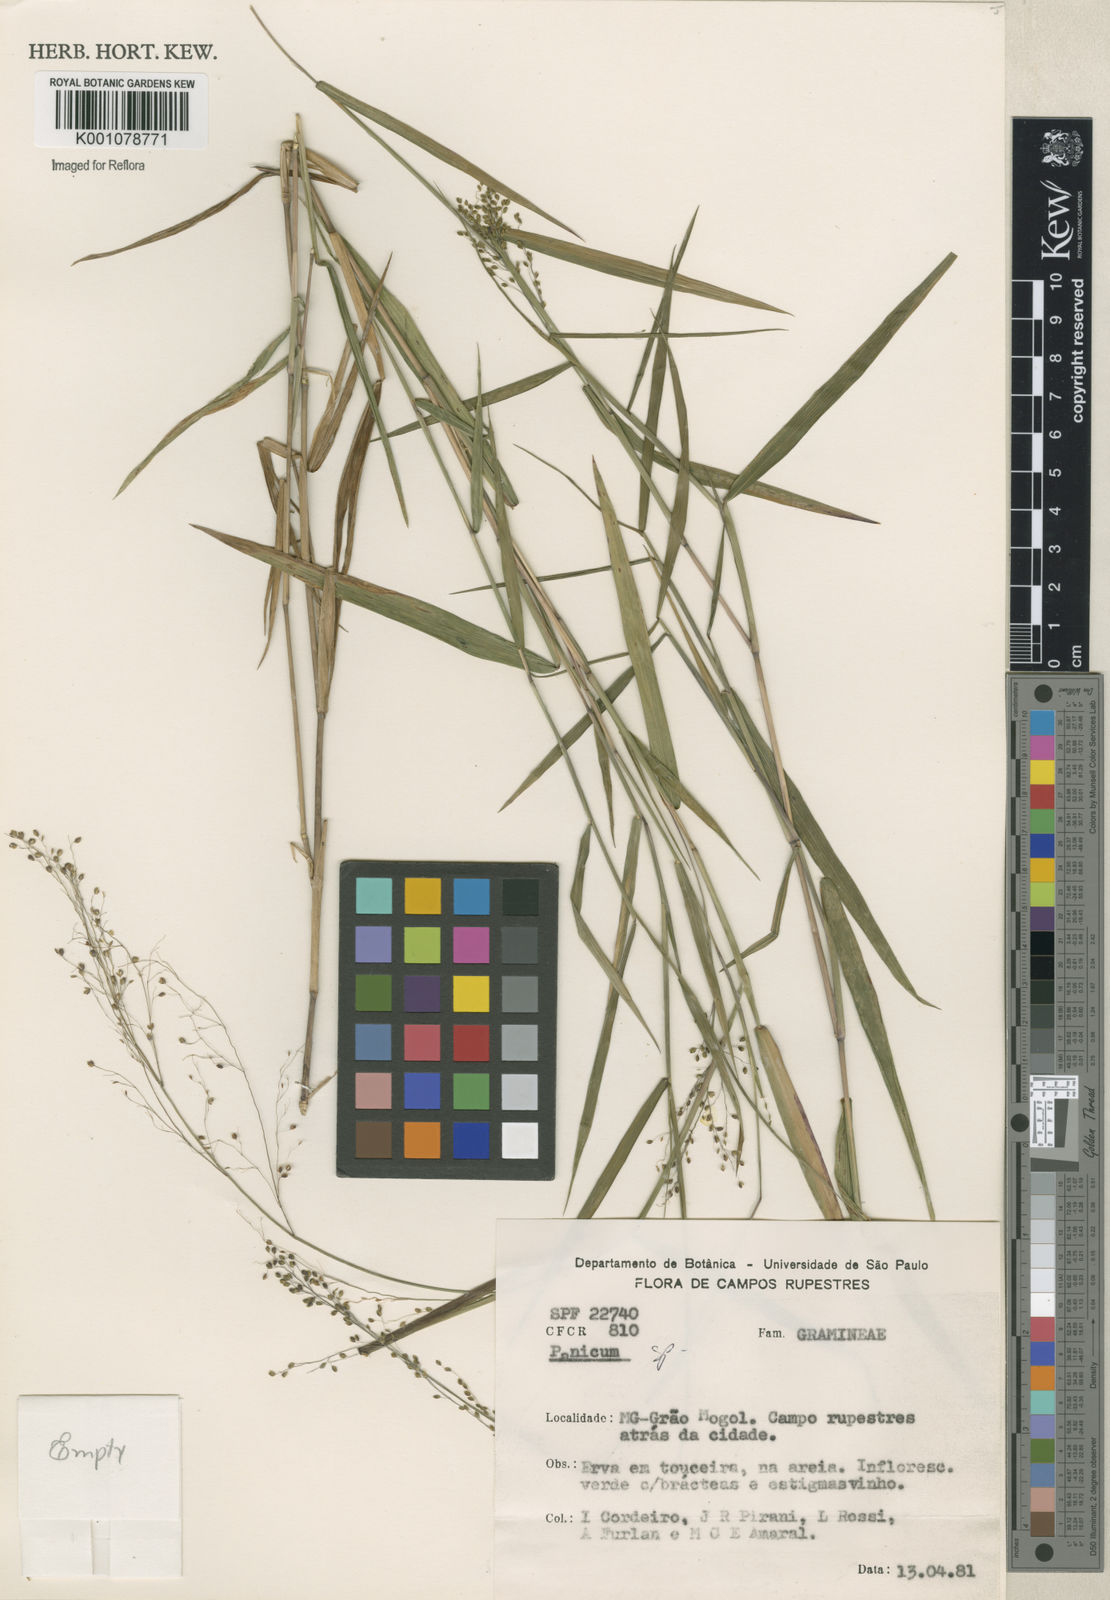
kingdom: Plantae
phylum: Tracheophyta
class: Liliopsida
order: Poales
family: Poaceae
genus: Panicum
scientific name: Panicum
